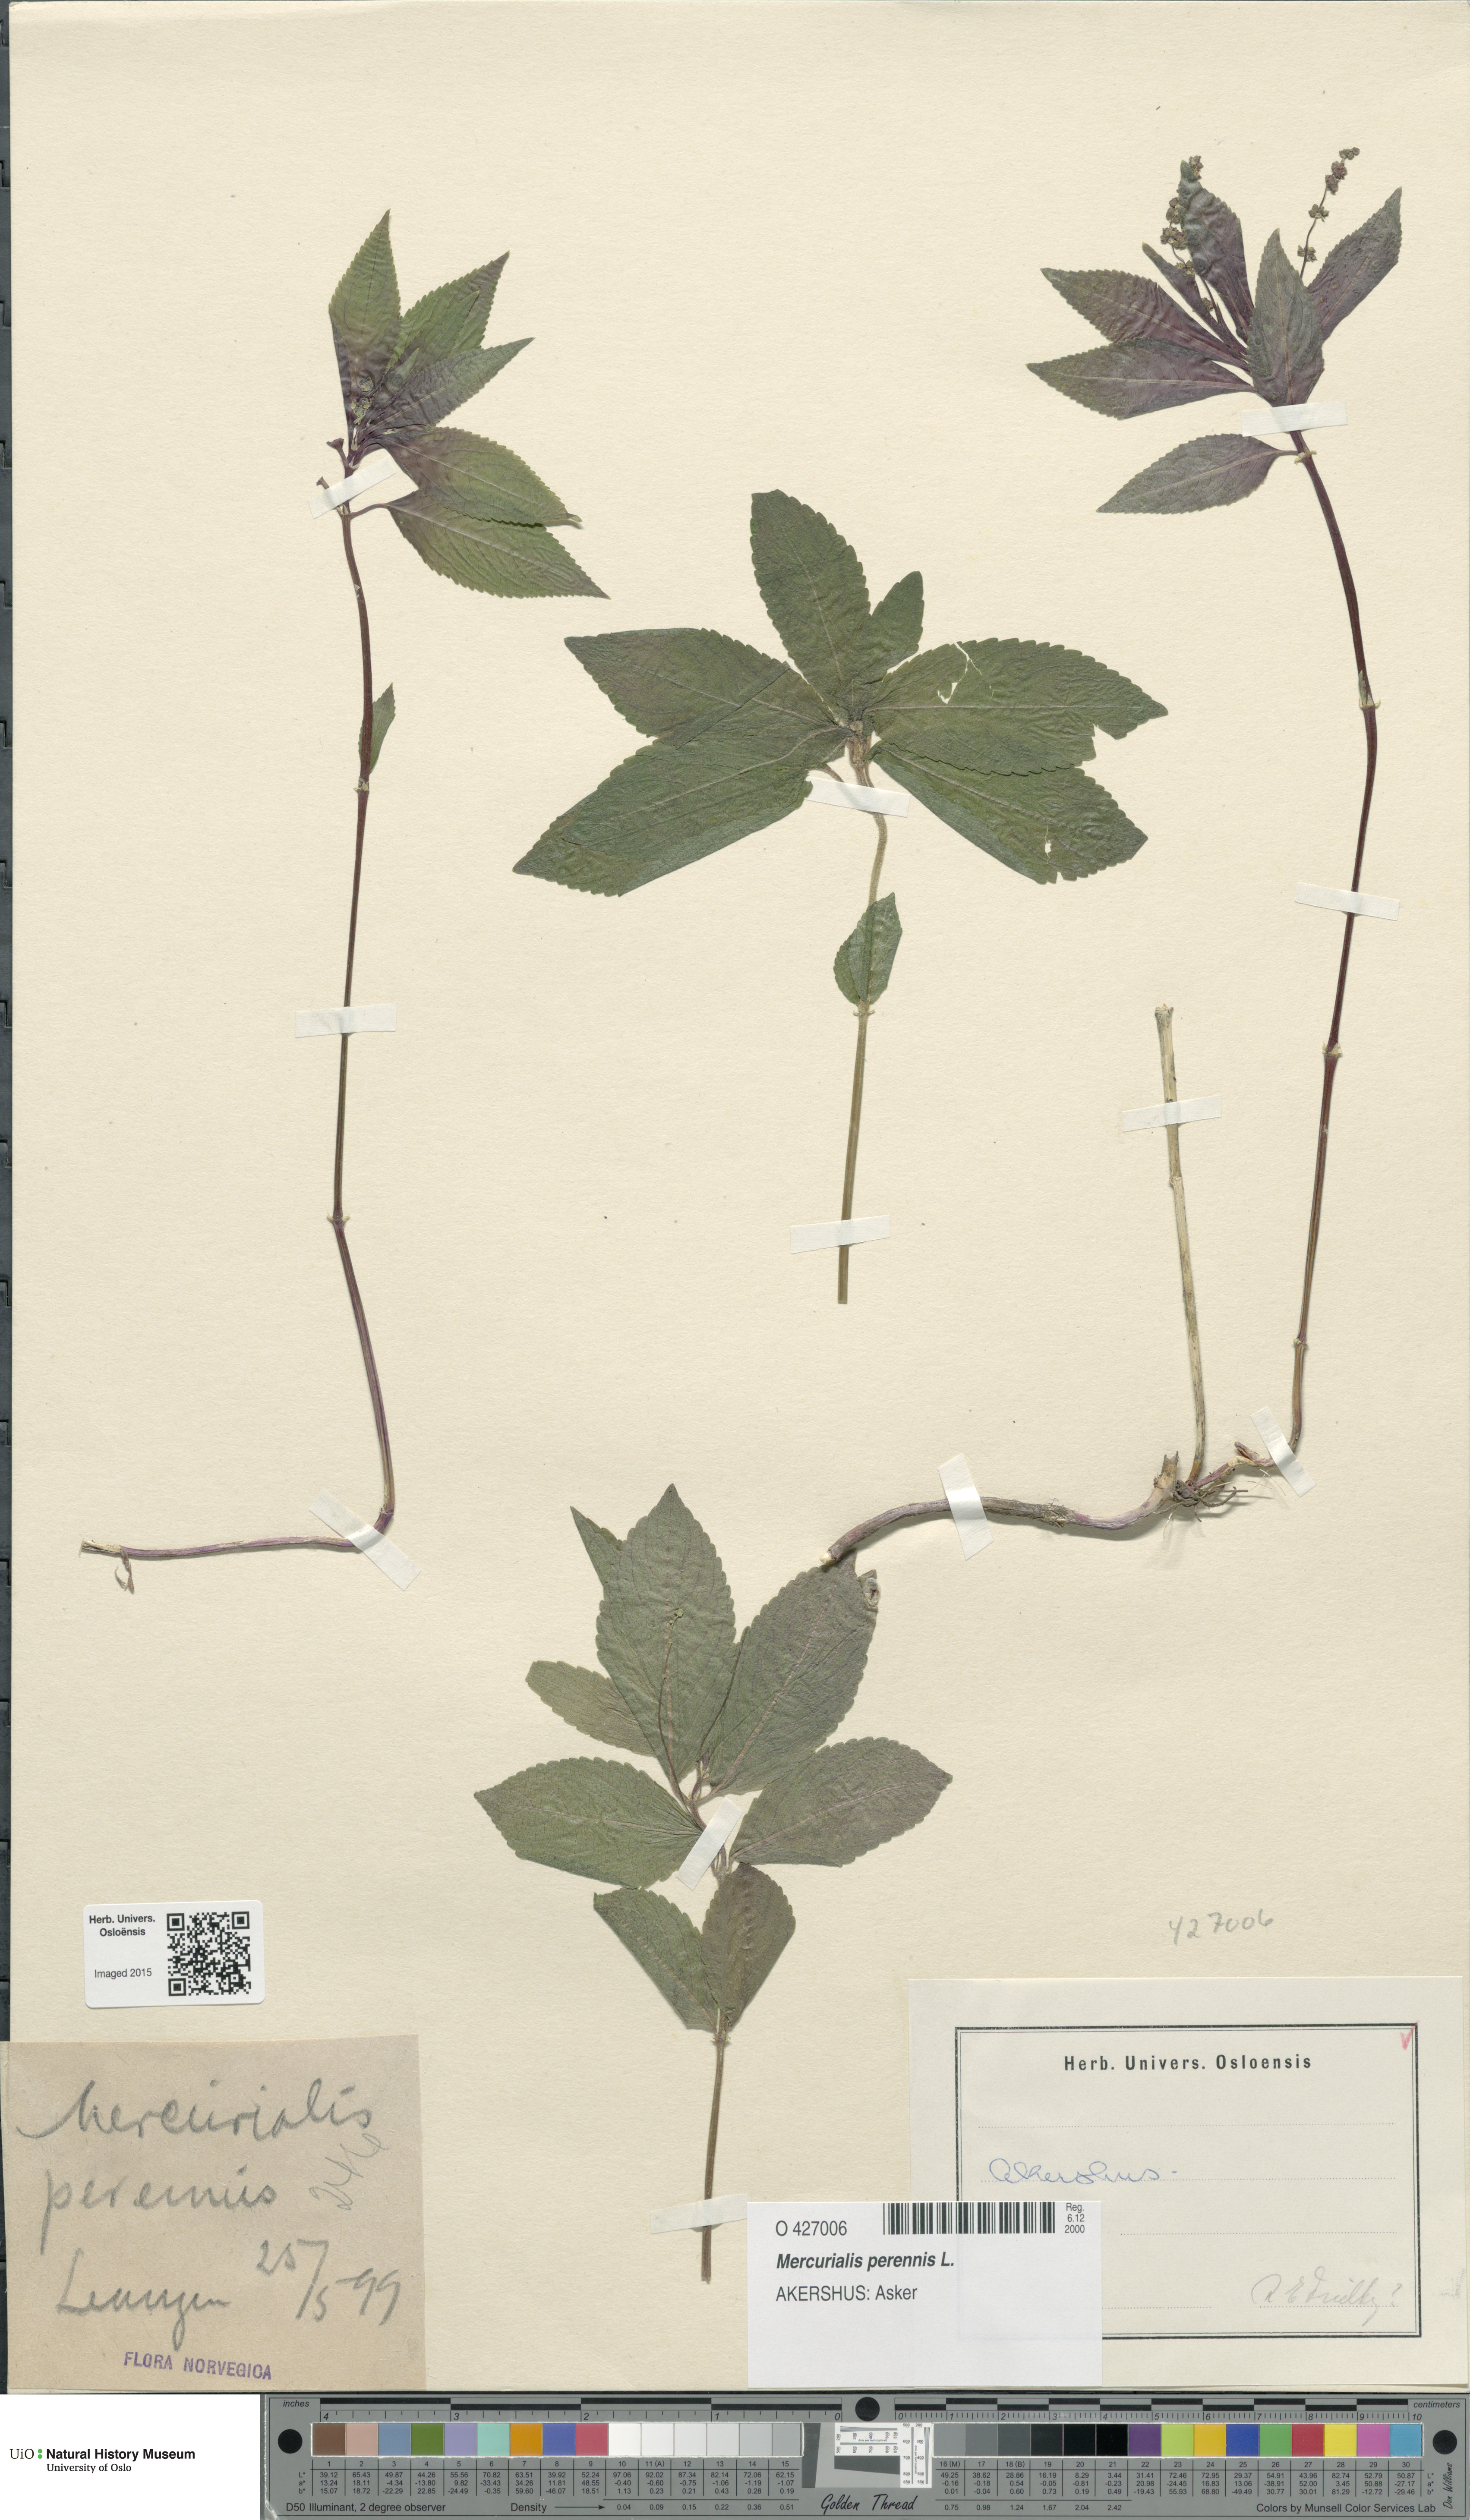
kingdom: Plantae
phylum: Tracheophyta
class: Magnoliopsida
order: Malpighiales
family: Euphorbiaceae
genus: Mercurialis
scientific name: Mercurialis perennis
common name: Dog mercury
